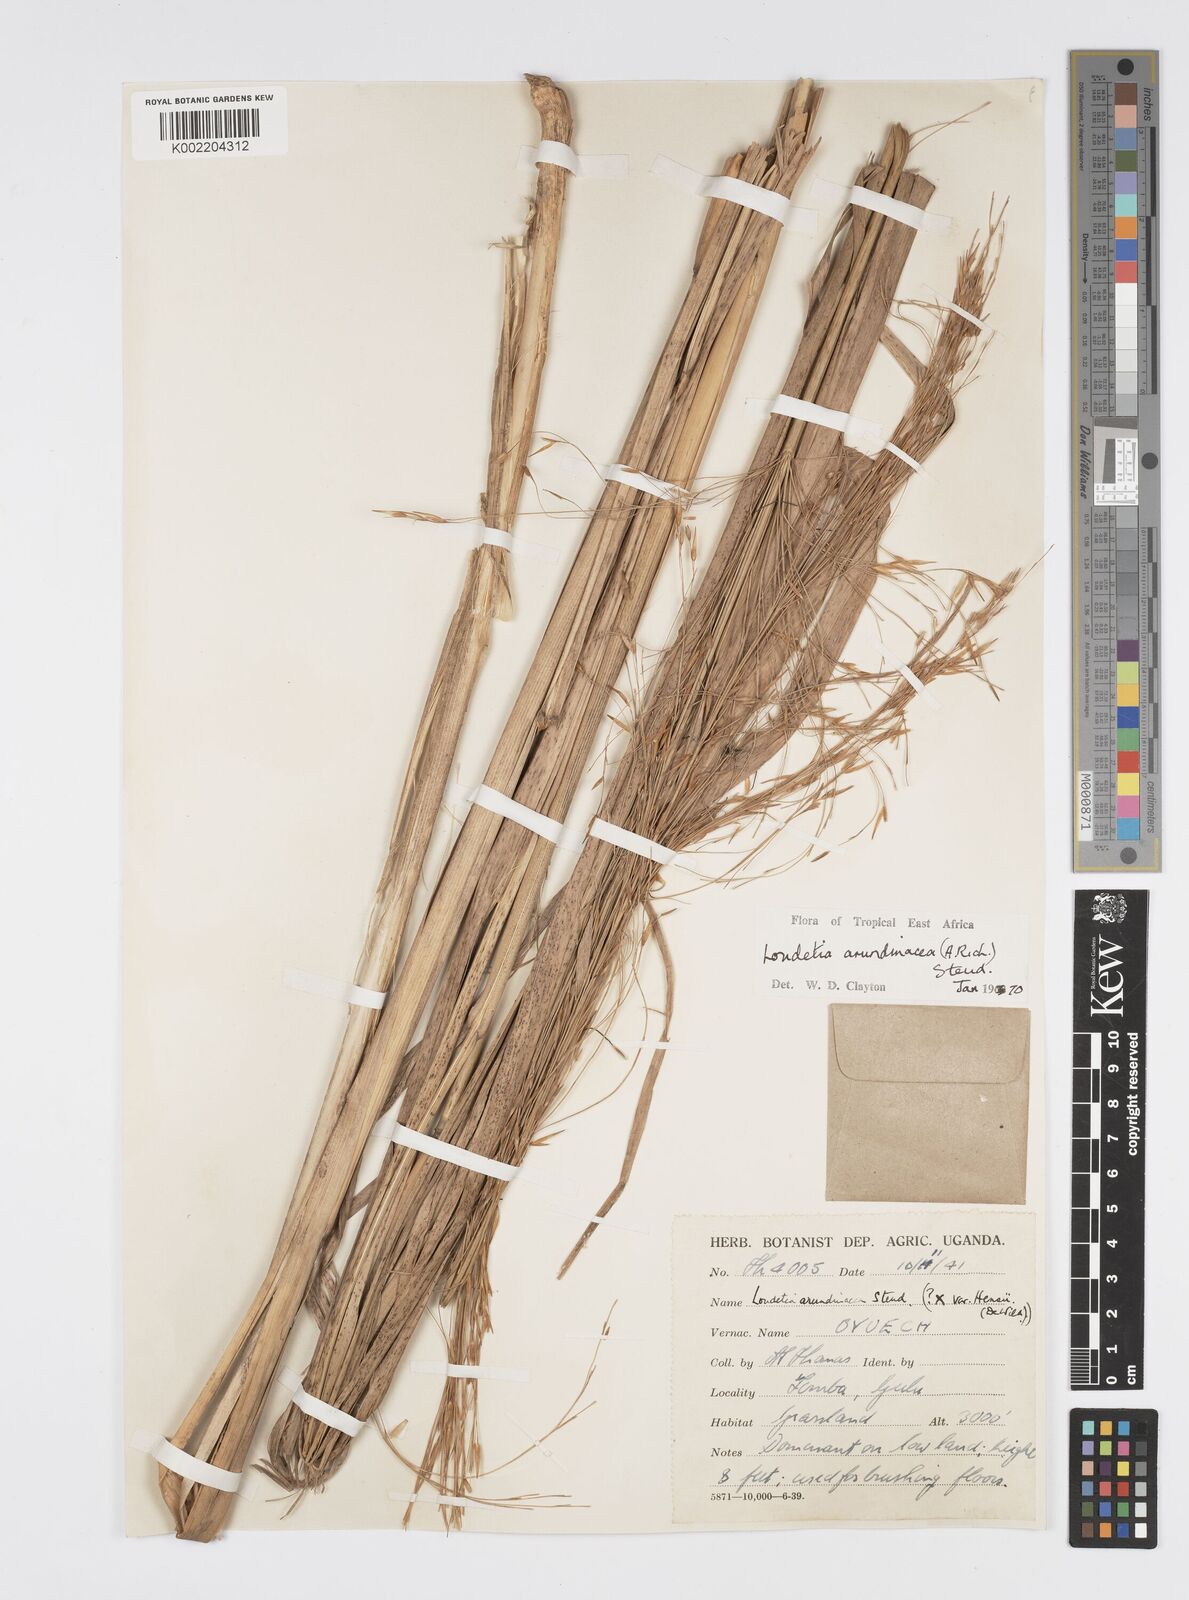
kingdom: Plantae
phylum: Tracheophyta
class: Liliopsida
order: Poales
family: Poaceae
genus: Loudetia
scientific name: Loudetia arundinacea
